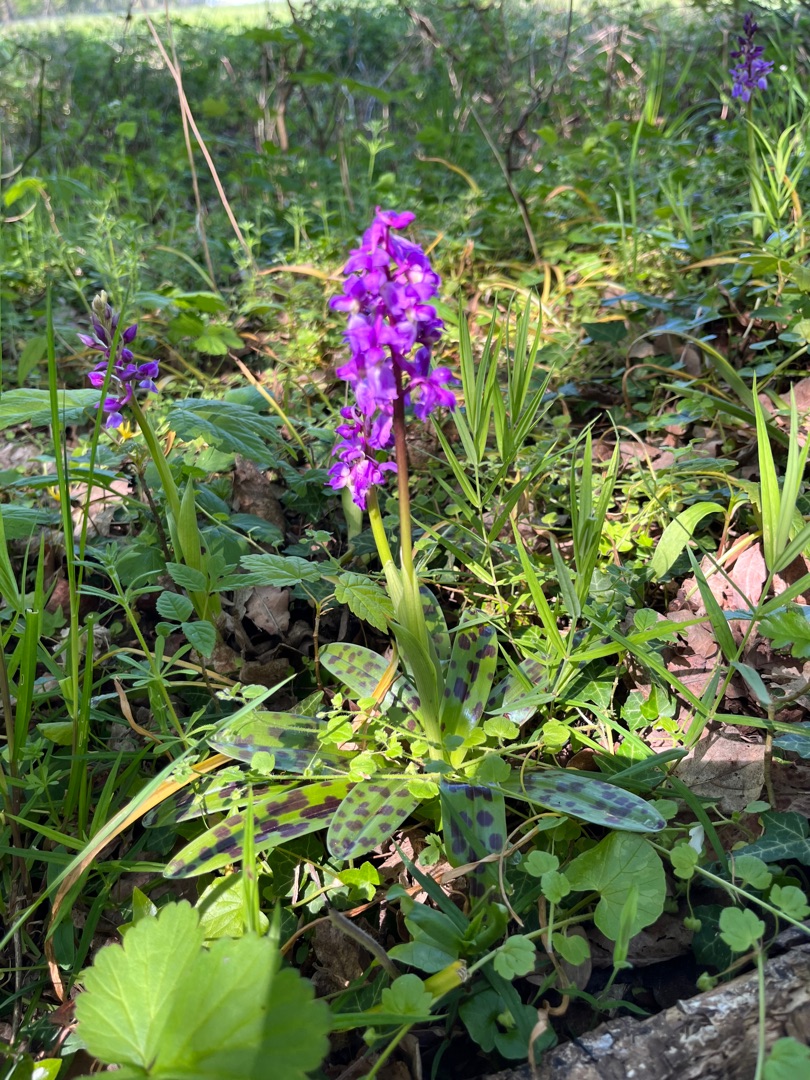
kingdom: Plantae
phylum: Tracheophyta
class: Liliopsida
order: Asparagales
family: Orchidaceae
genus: Orchis
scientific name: Orchis mascula
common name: Tyndakset gøgeurt
